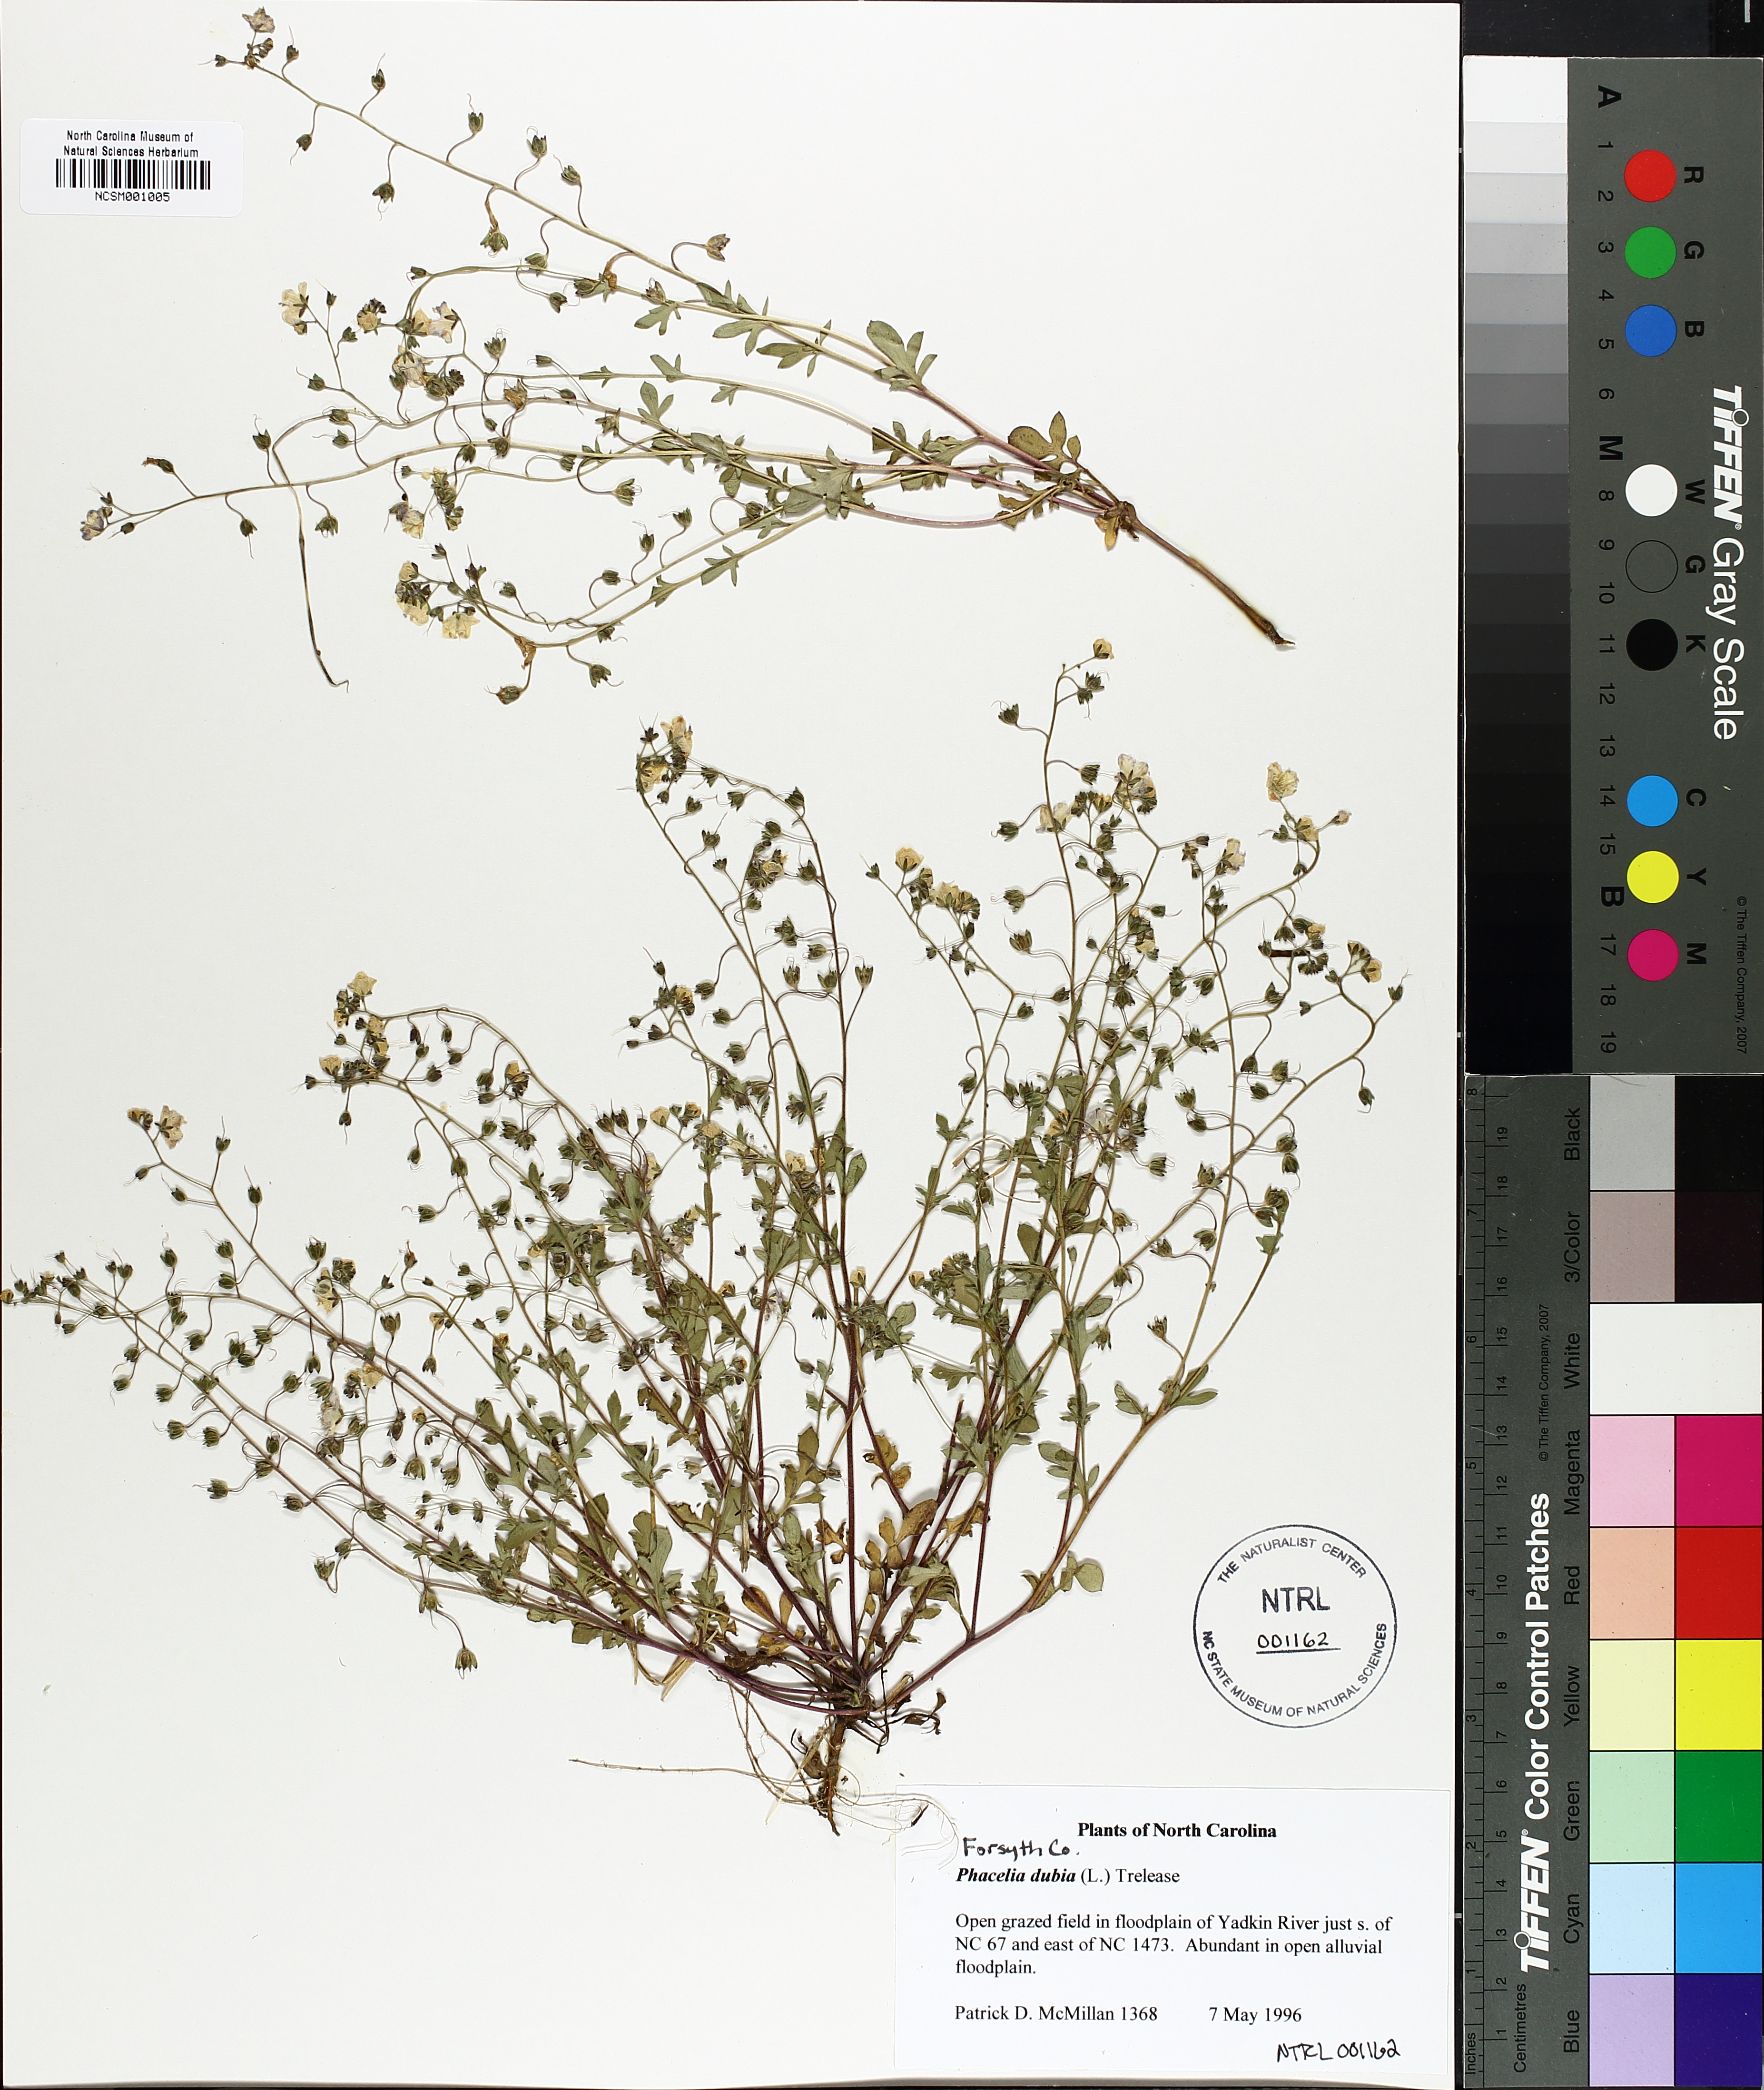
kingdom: Plantae
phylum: Tracheophyta
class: Magnoliopsida
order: Boraginales
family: Hydrophyllaceae
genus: Phacelia
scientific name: Phacelia dubia
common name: Appalachian phacelia
